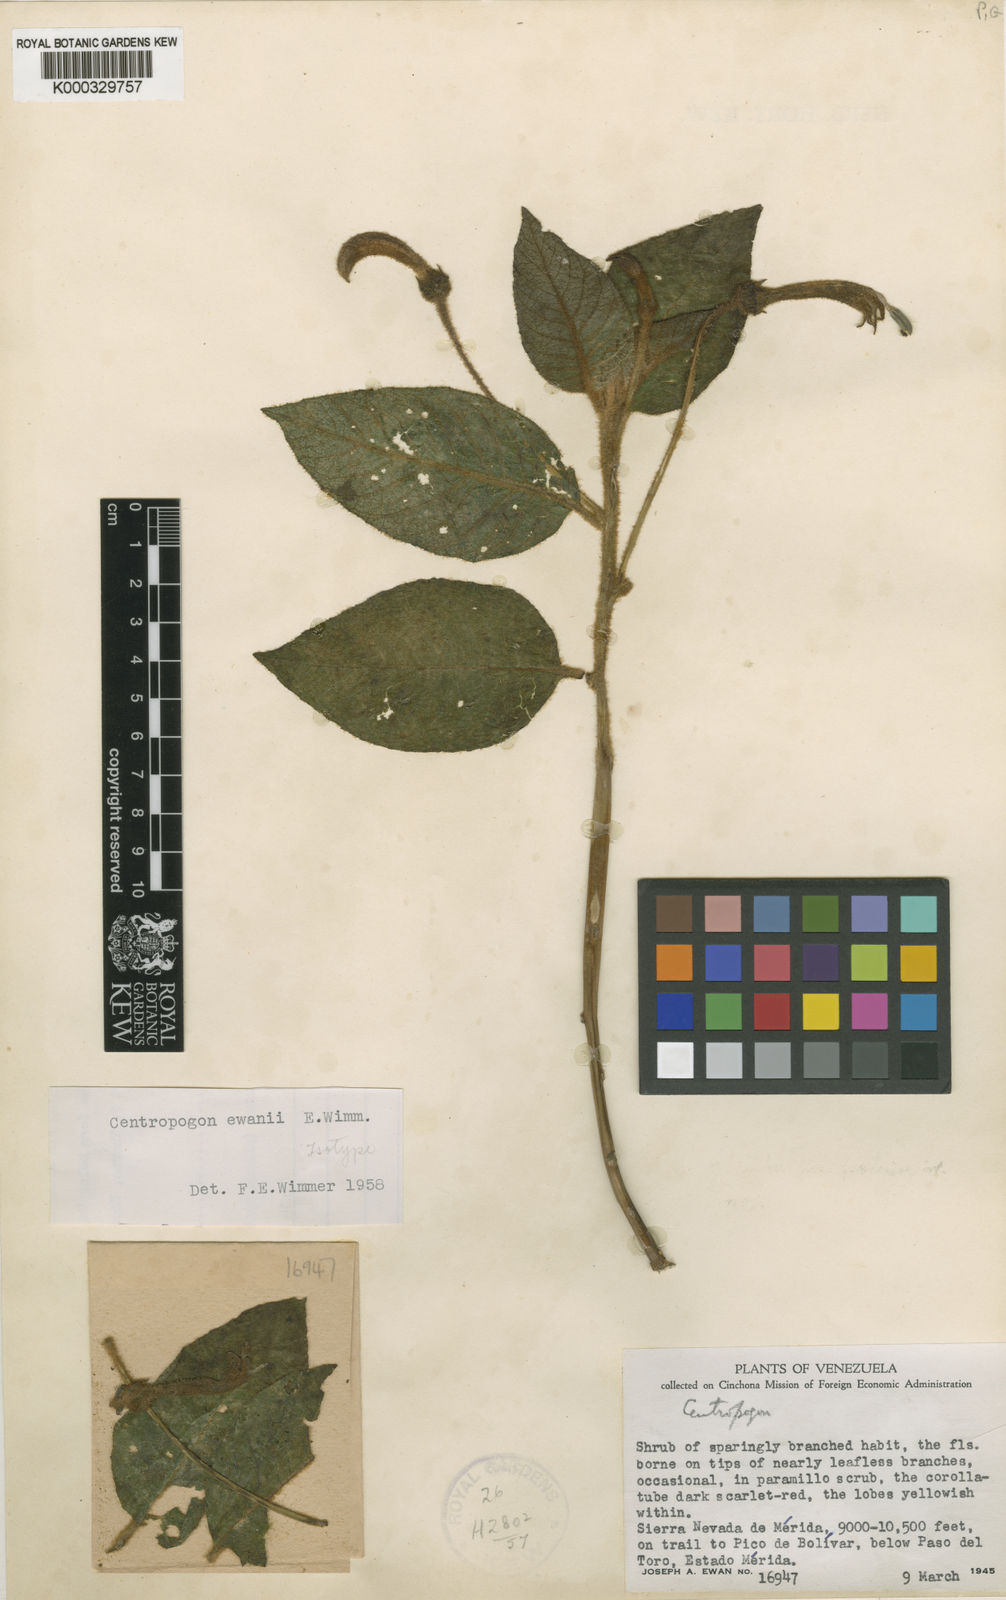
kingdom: Plantae
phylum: Tracheophyta
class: Magnoliopsida
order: Asterales
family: Campanulaceae
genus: Centropogon
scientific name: Centropogon ewanii
